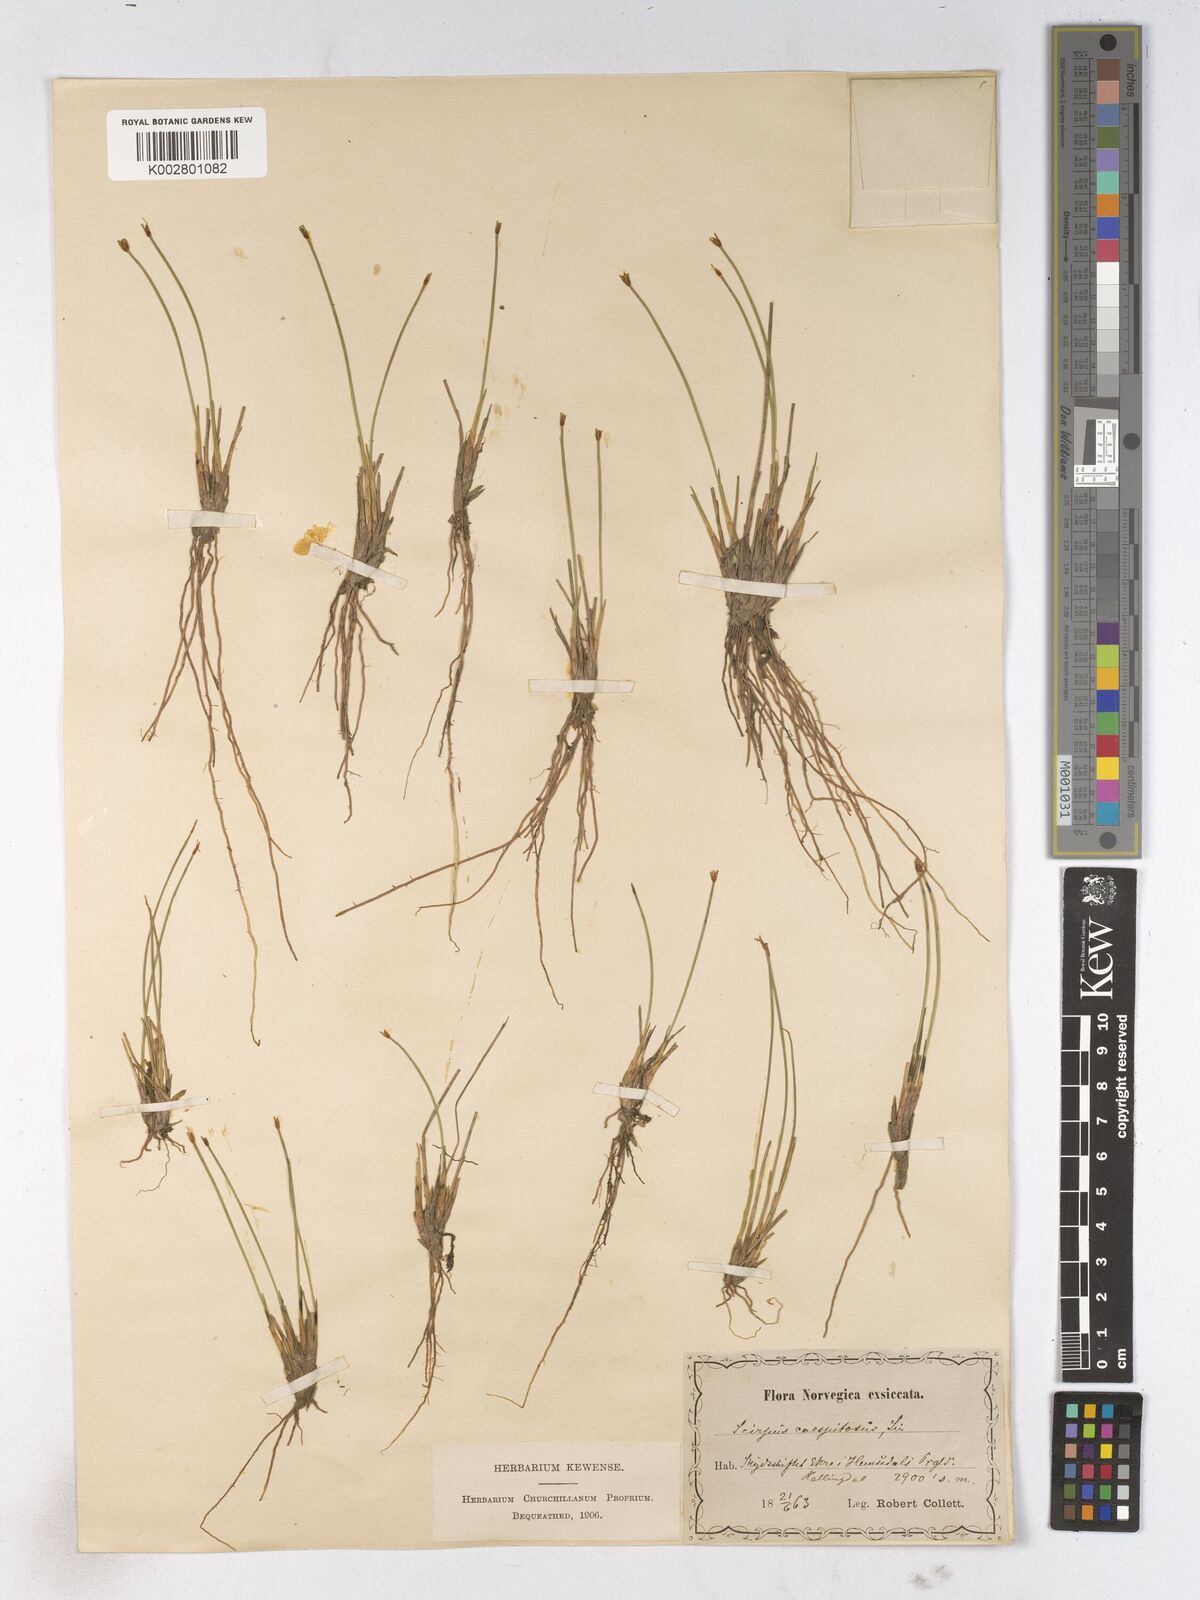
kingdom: Plantae
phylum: Tracheophyta
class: Liliopsida
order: Poales
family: Cyperaceae
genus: Trichophorum
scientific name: Trichophorum cespitosum
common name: Cespitose bulrush
